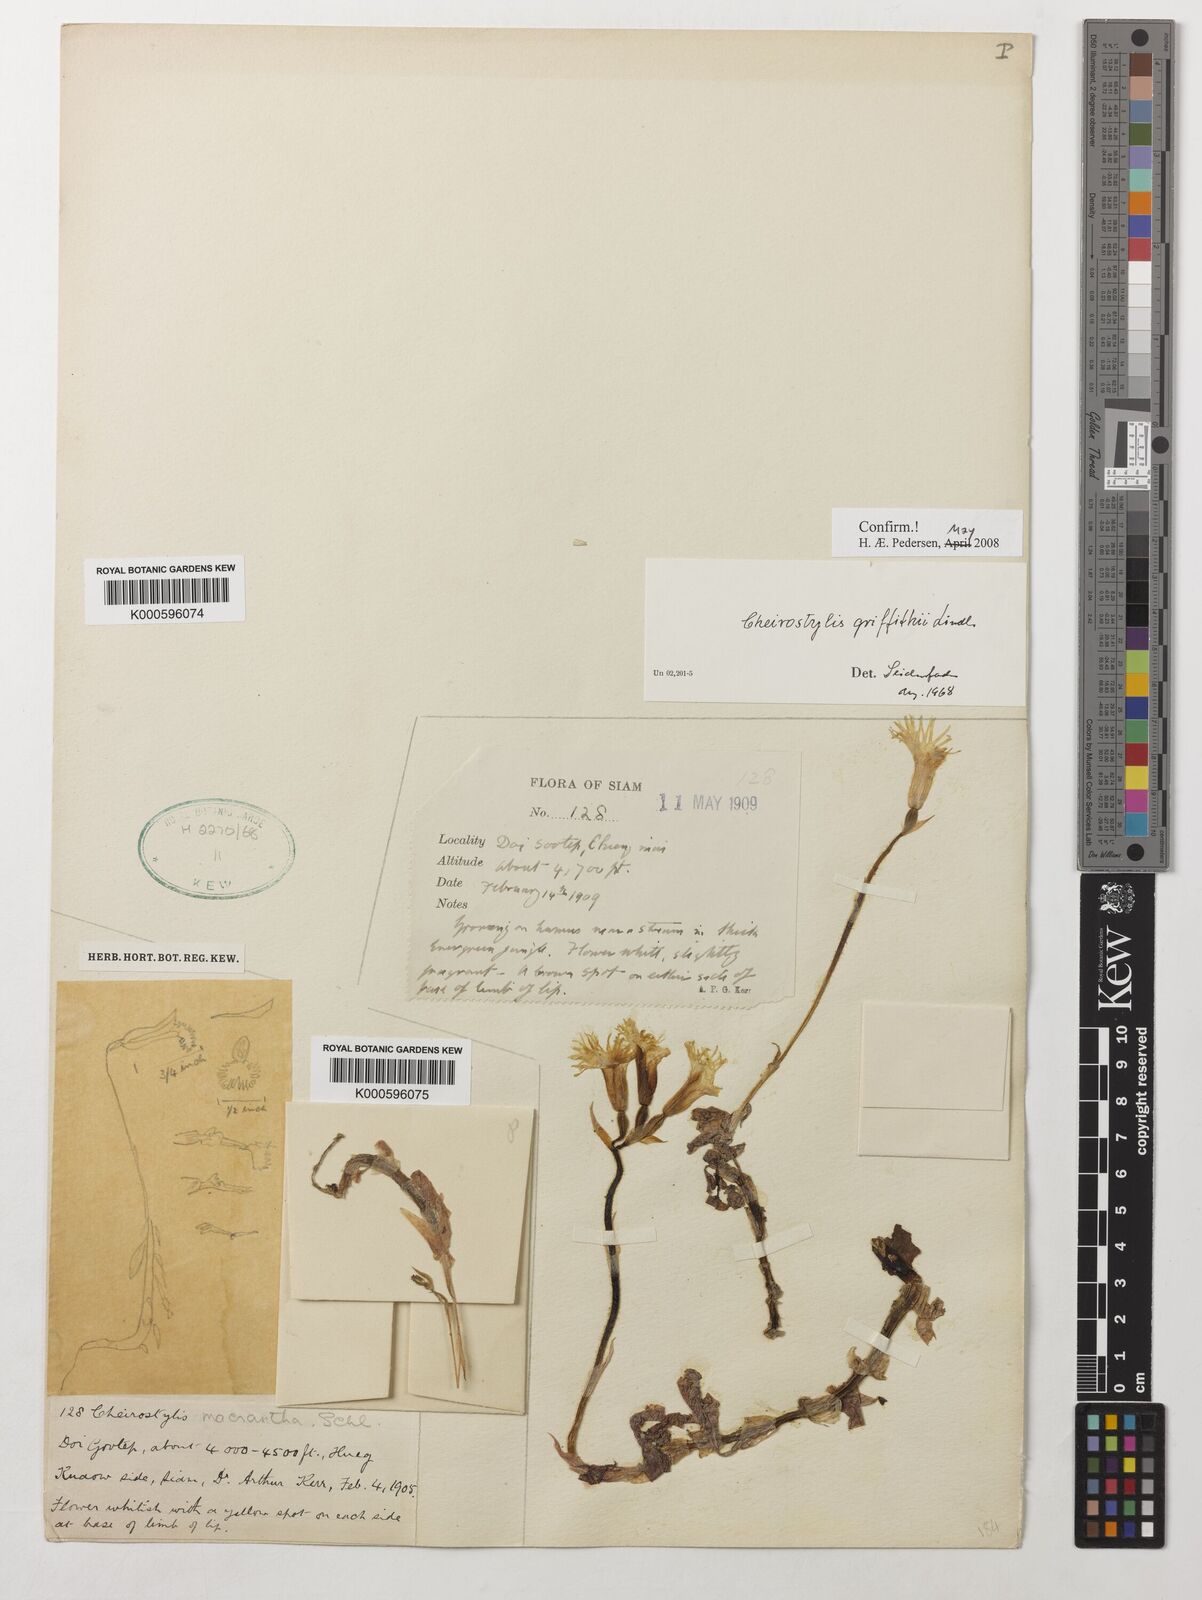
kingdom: Plantae
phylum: Tracheophyta
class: Liliopsida
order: Asparagales
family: Orchidaceae
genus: Cheirostylis
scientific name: Cheirostylis griffithii
